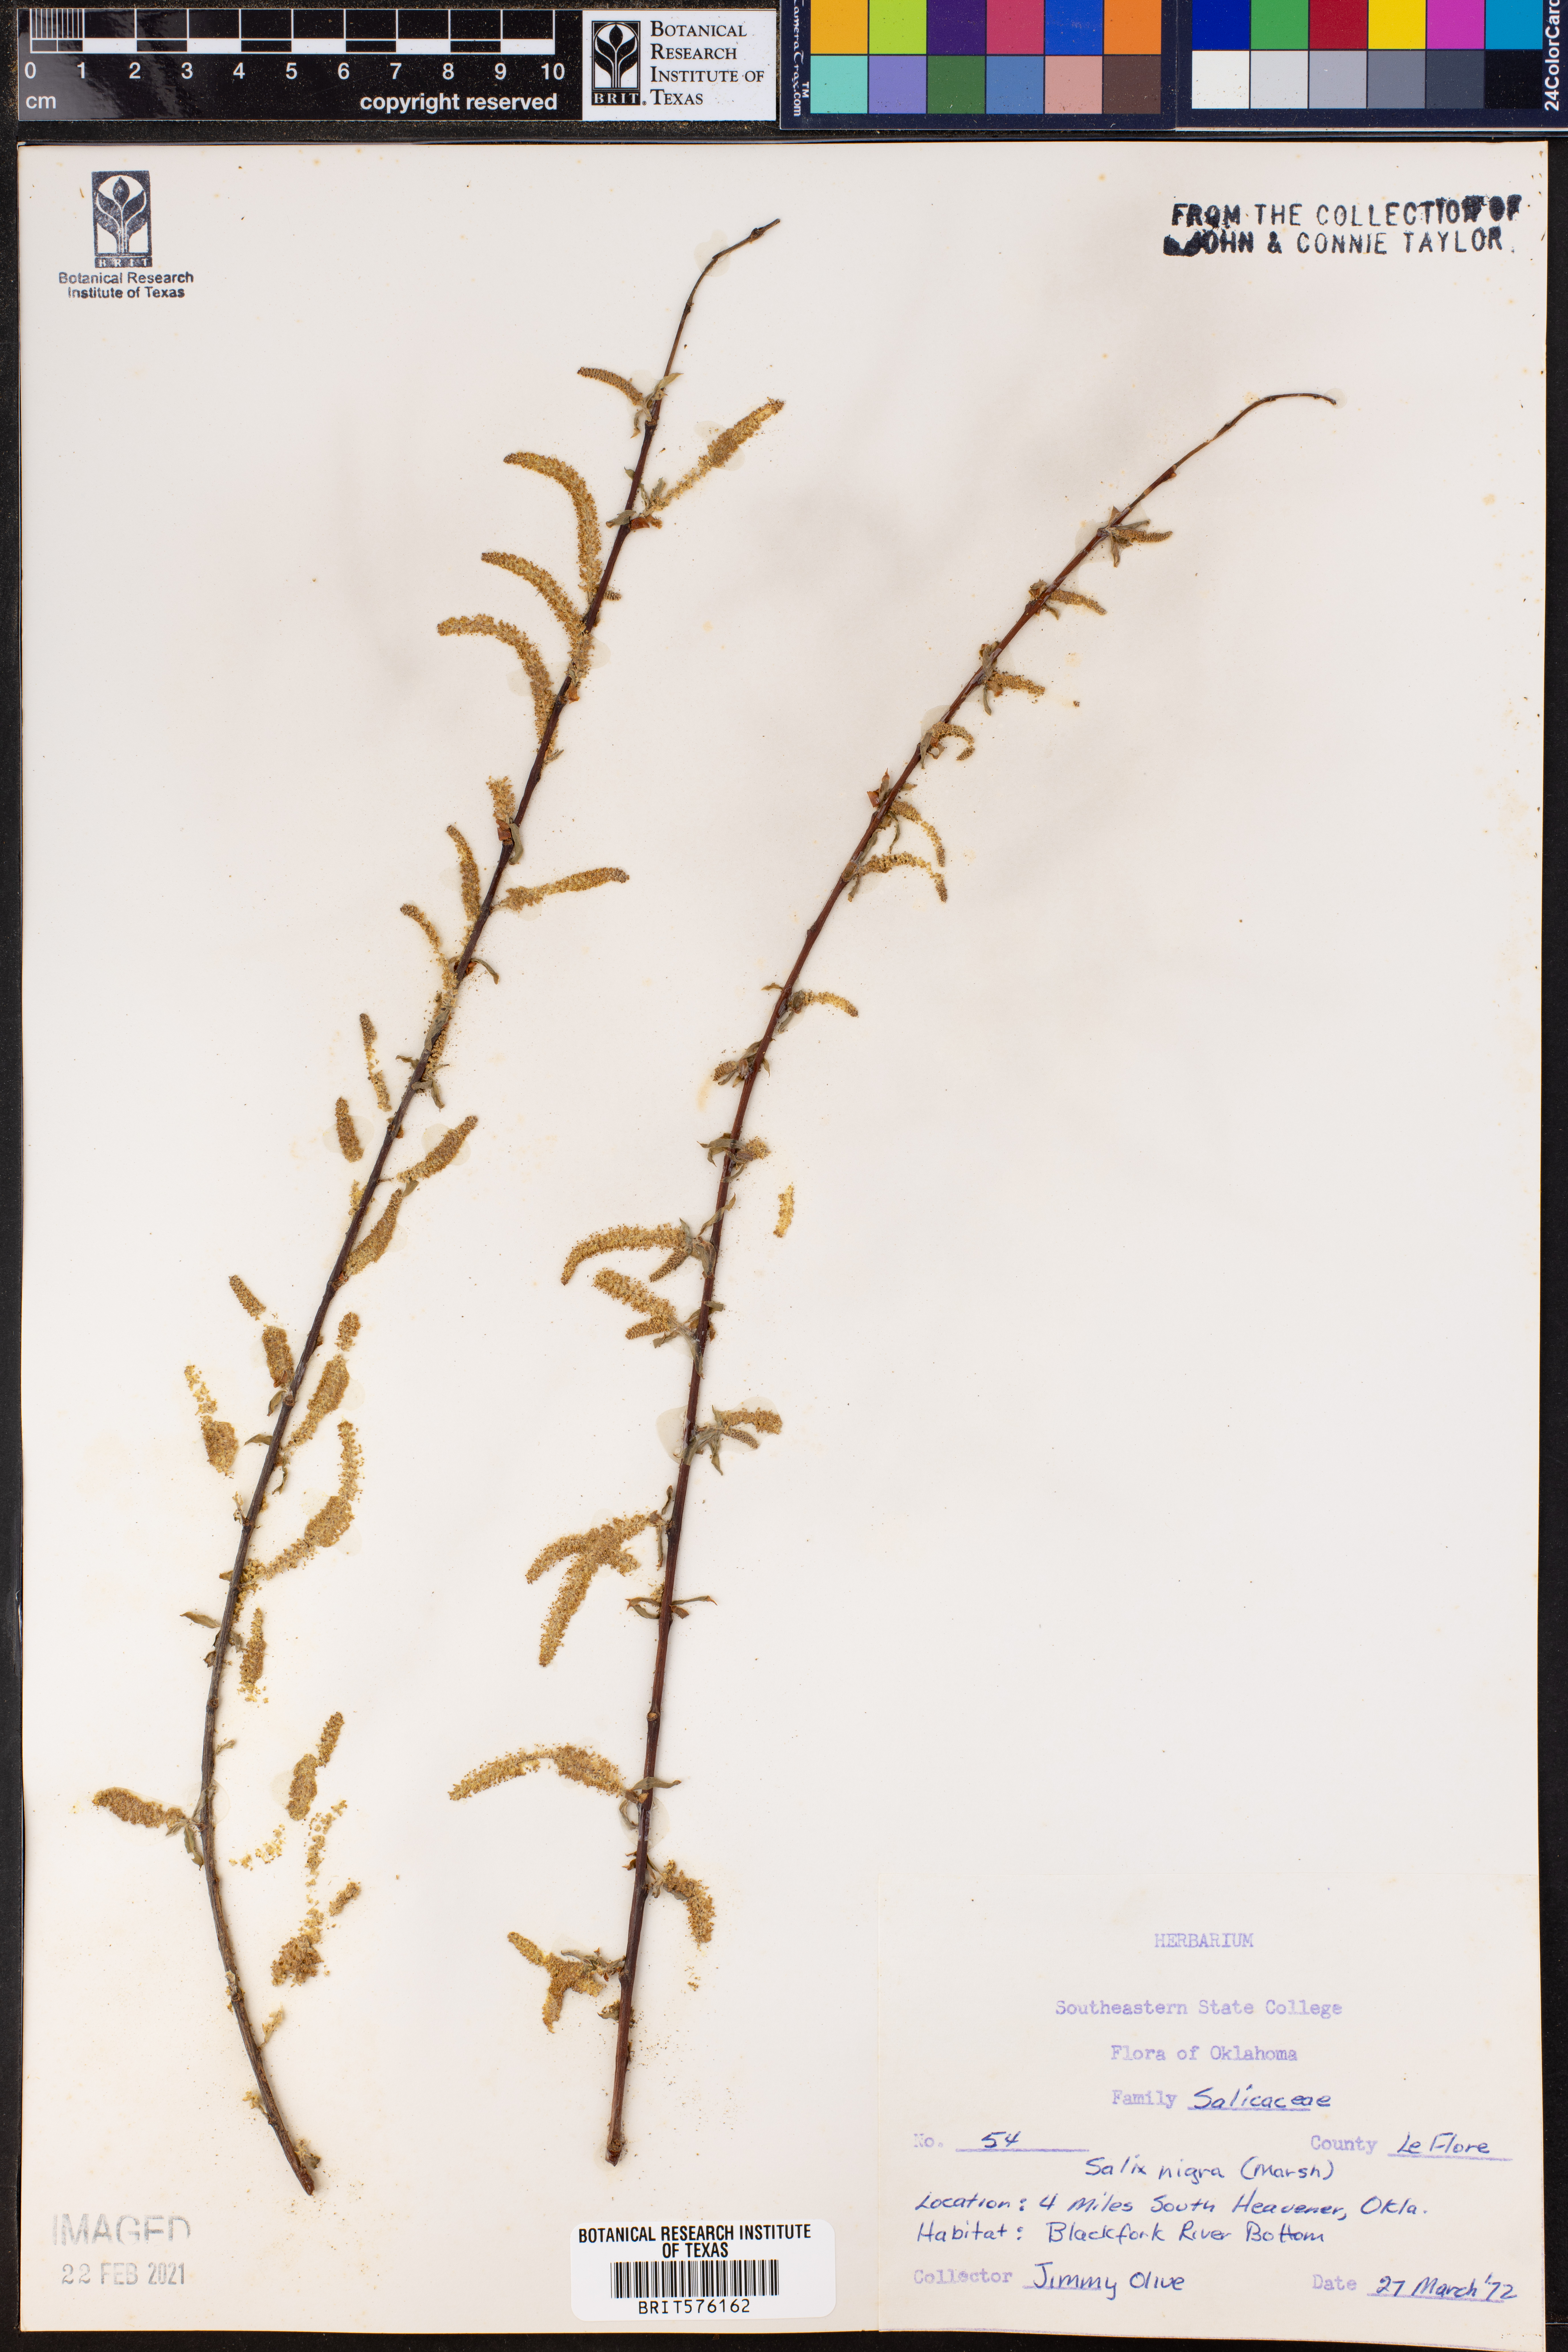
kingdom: Plantae
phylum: Tracheophyta
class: Magnoliopsida
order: Malpighiales
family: Salicaceae
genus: Salix
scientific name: Salix nigra
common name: Black willow
